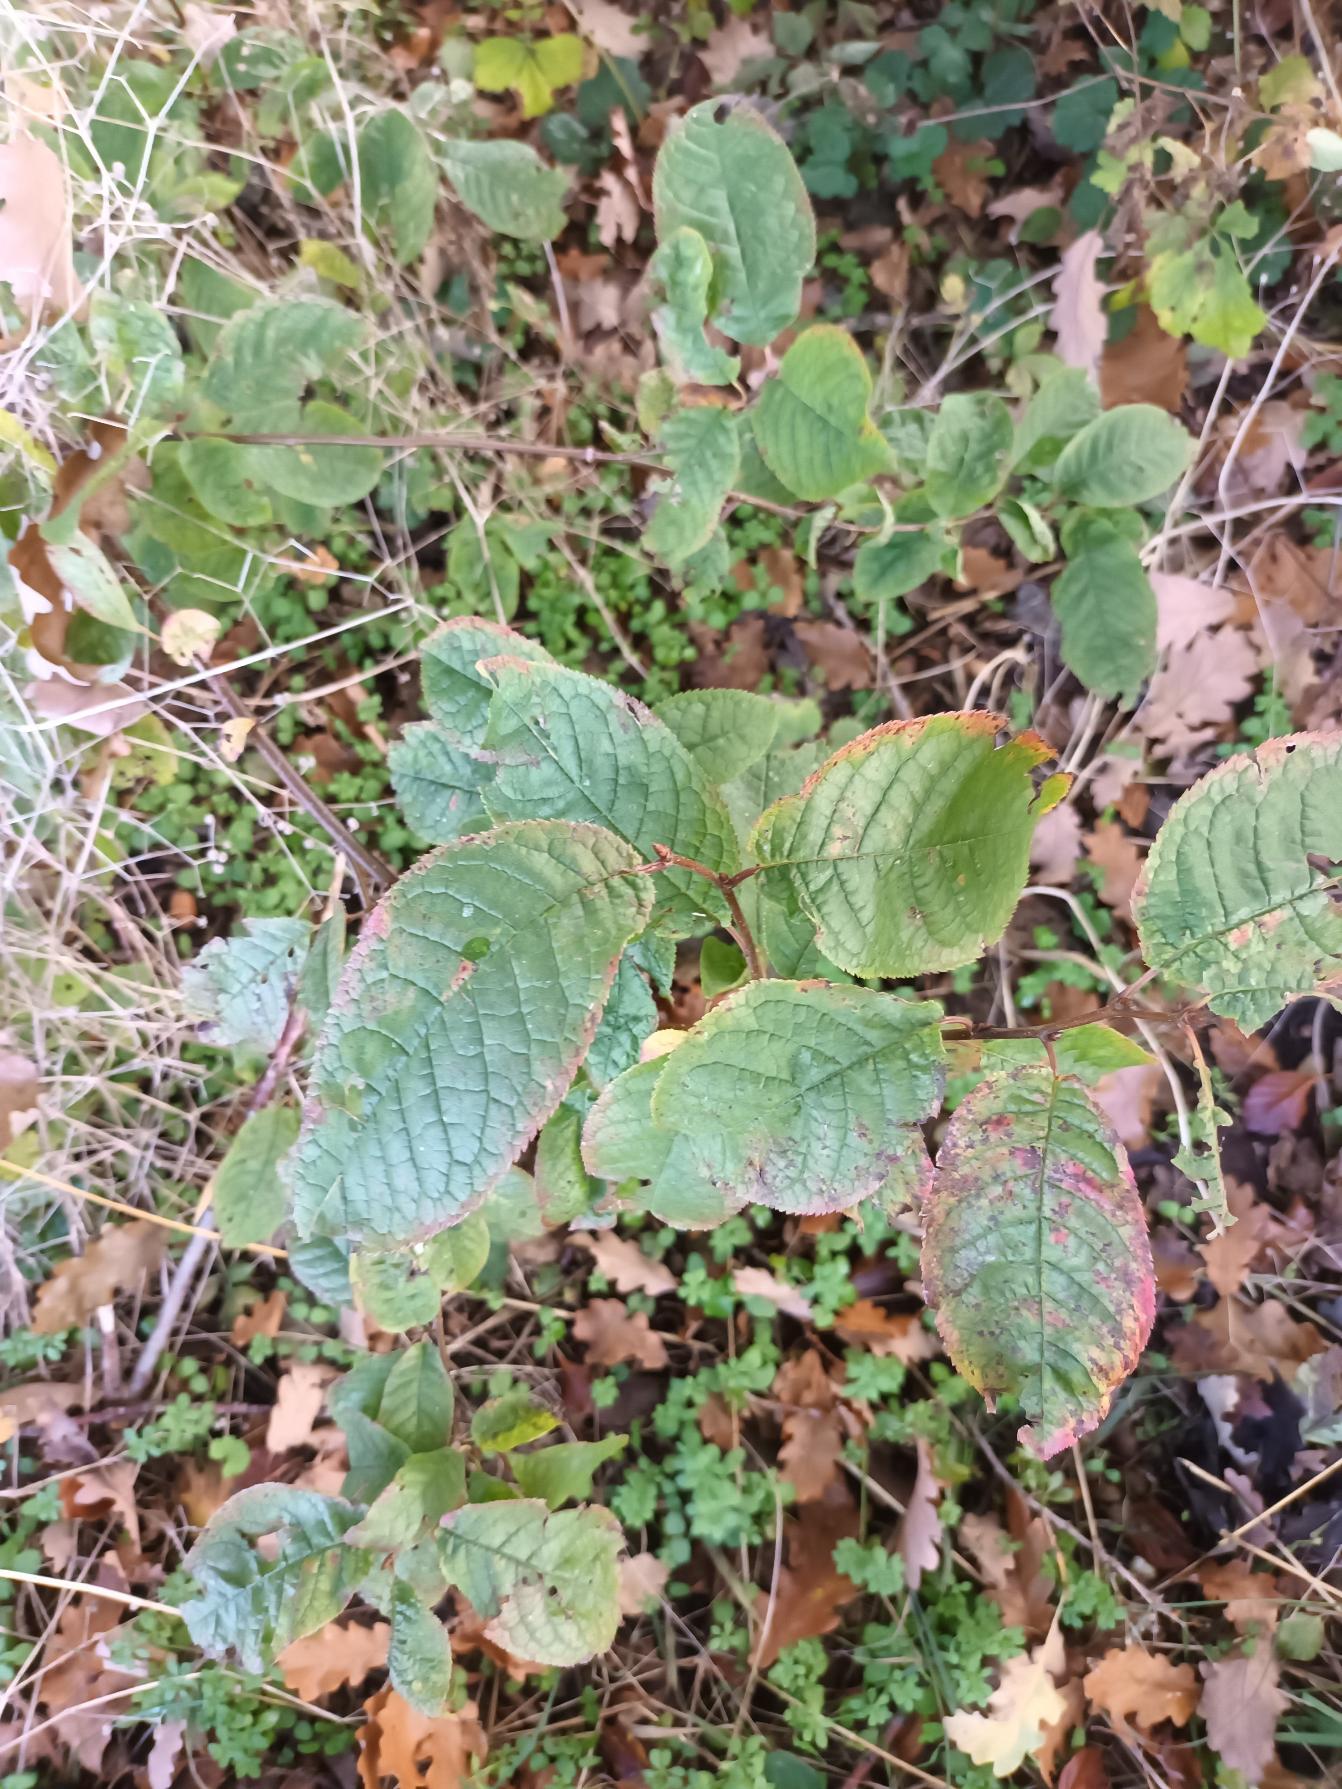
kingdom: Plantae
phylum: Tracheophyta
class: Magnoliopsida
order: Rosales
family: Rosaceae
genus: Prunus
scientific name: Prunus padus
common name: Almindelig hæg
